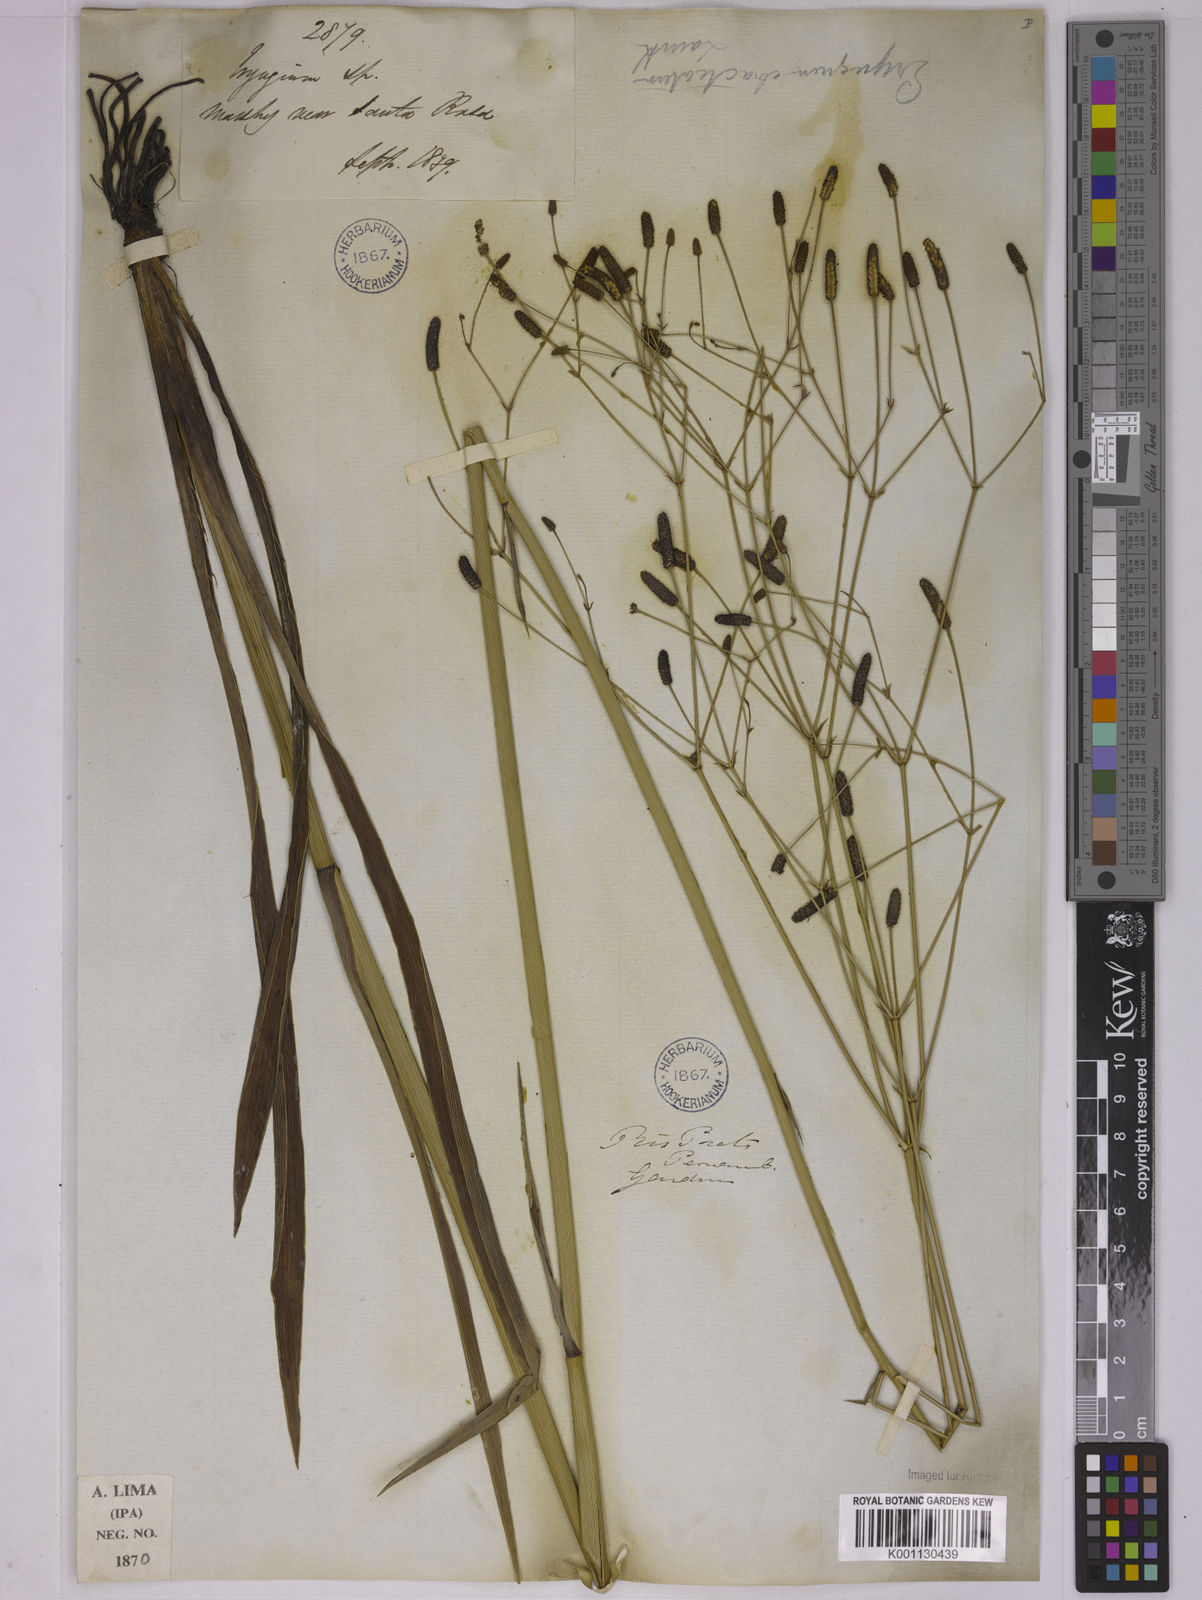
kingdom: Plantae
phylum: Tracheophyta
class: Magnoliopsida
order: Apiales
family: Apiaceae
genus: Eryngium
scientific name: Eryngium ebracteatum
